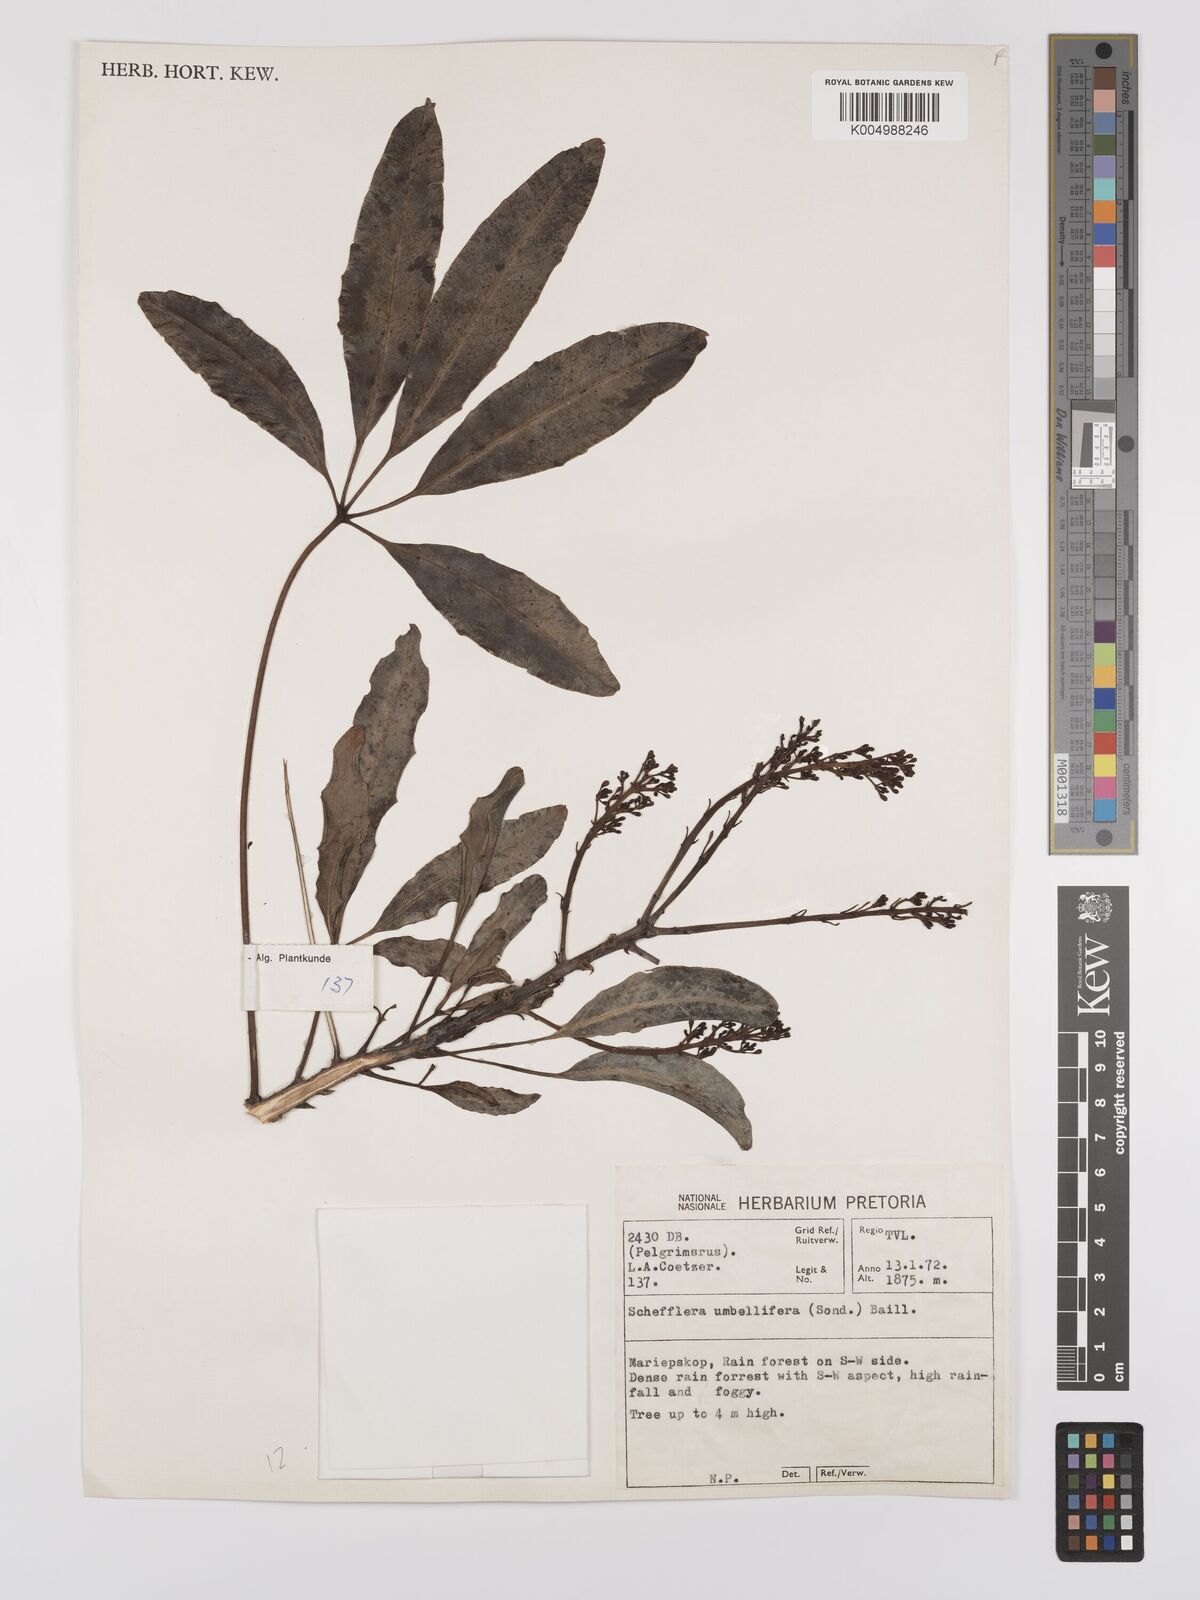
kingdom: Plantae
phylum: Tracheophyta
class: Magnoliopsida
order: Apiales
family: Araliaceae
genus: Neocussonia
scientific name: Neocussonia umbellifera
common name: False cabbage tree
